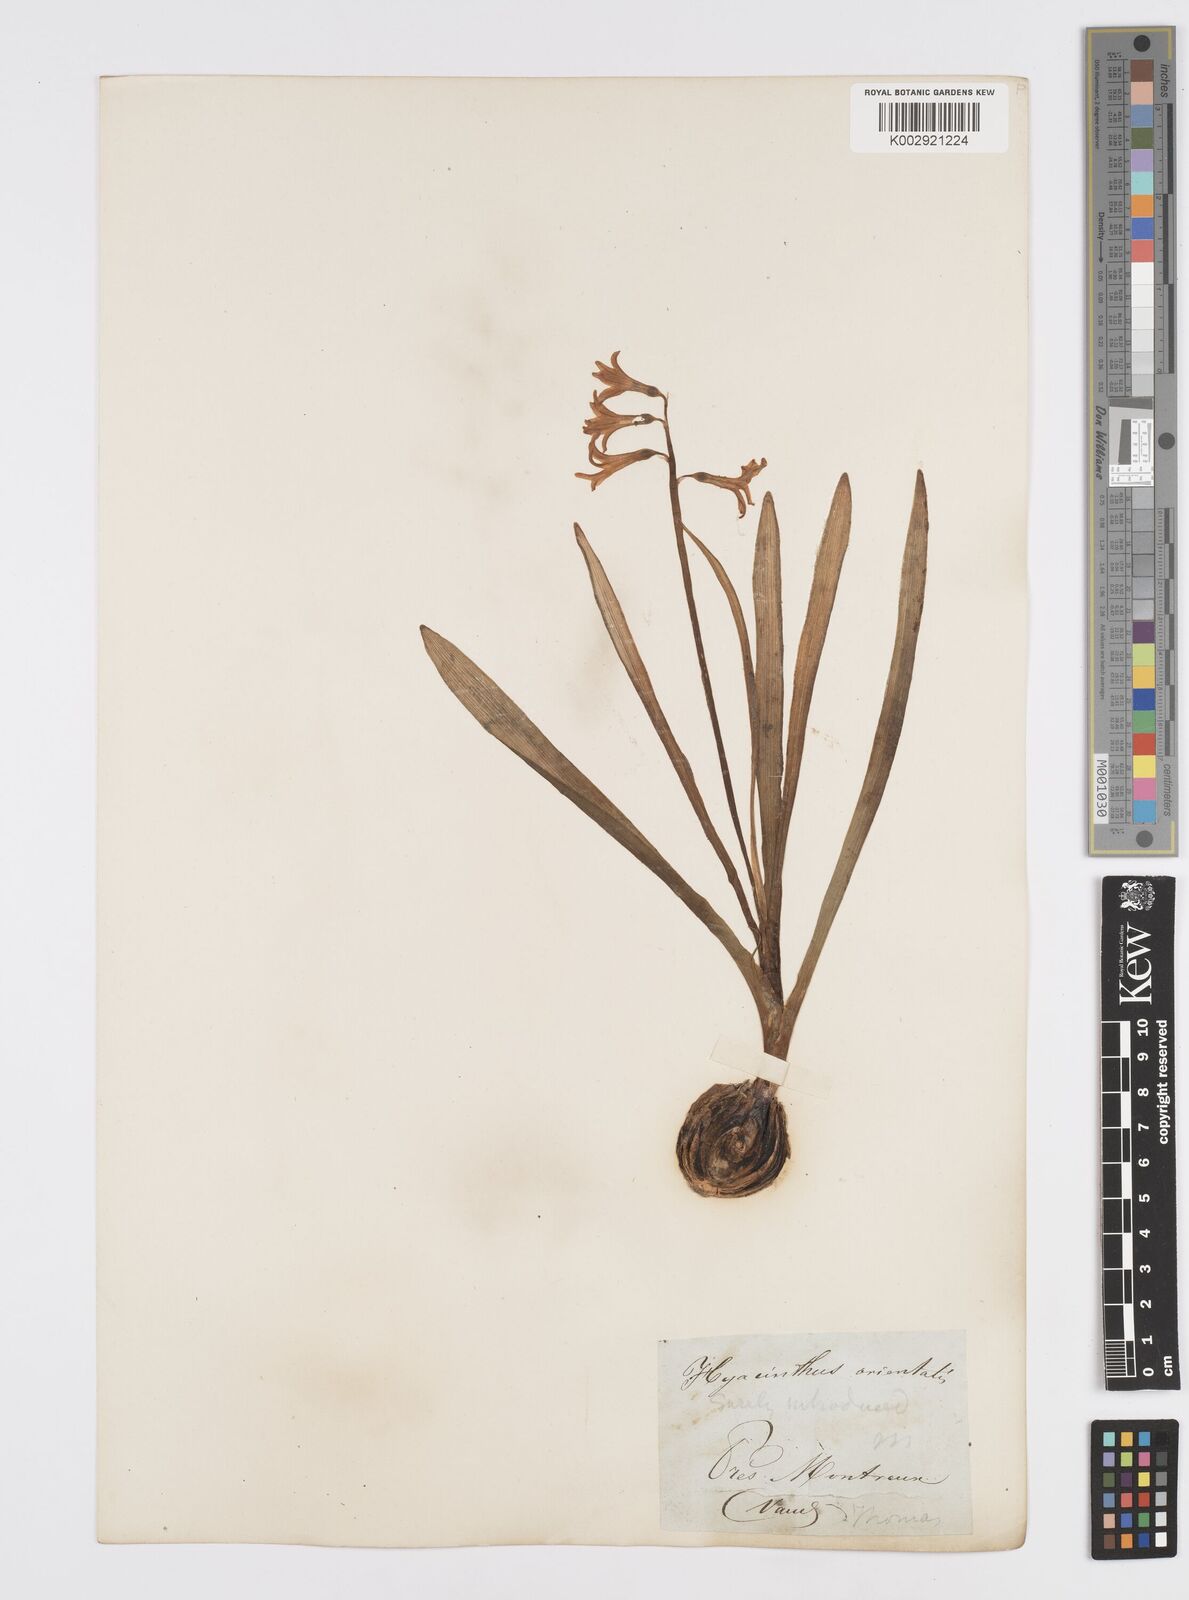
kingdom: Plantae
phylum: Tracheophyta
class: Liliopsida
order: Asparagales
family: Asparagaceae
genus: Hyacinthus
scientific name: Hyacinthus orientalis
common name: Hyacinth
